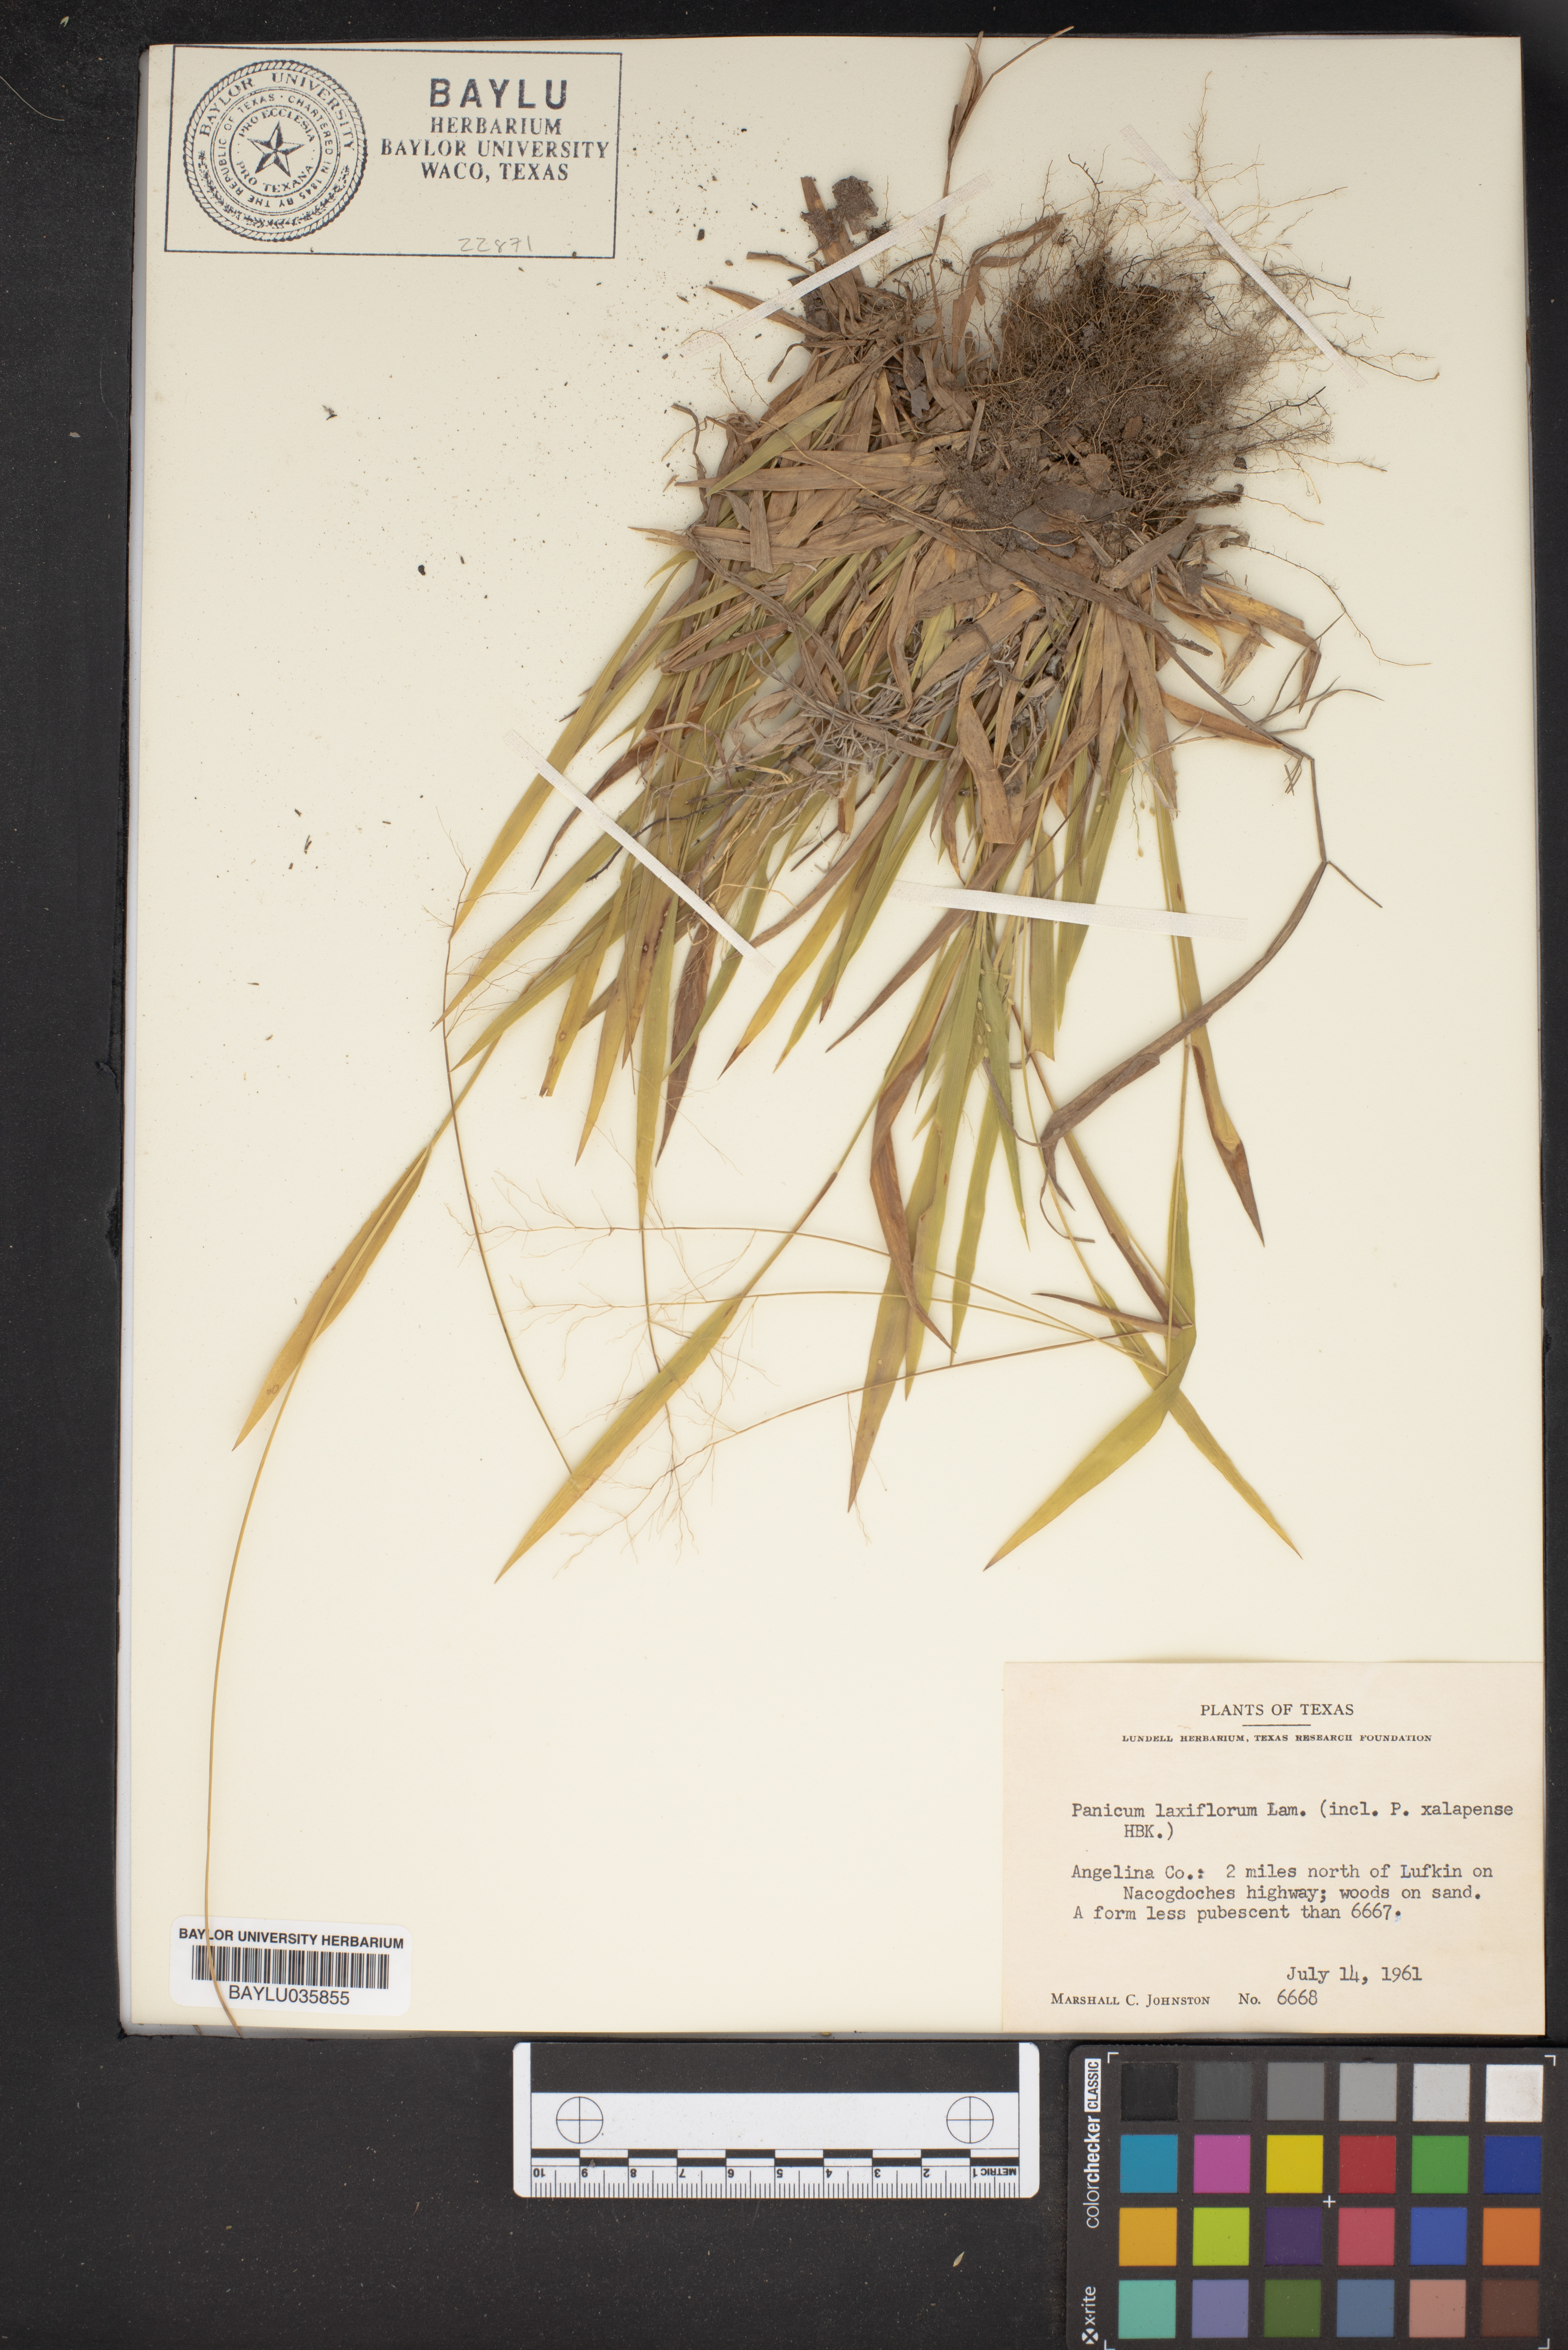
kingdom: Plantae
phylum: Tracheophyta
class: Liliopsida
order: Poales
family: Poaceae
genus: Dichanthelium
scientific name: Dichanthelium laxiflorum
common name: Soft-tuft panic grass
